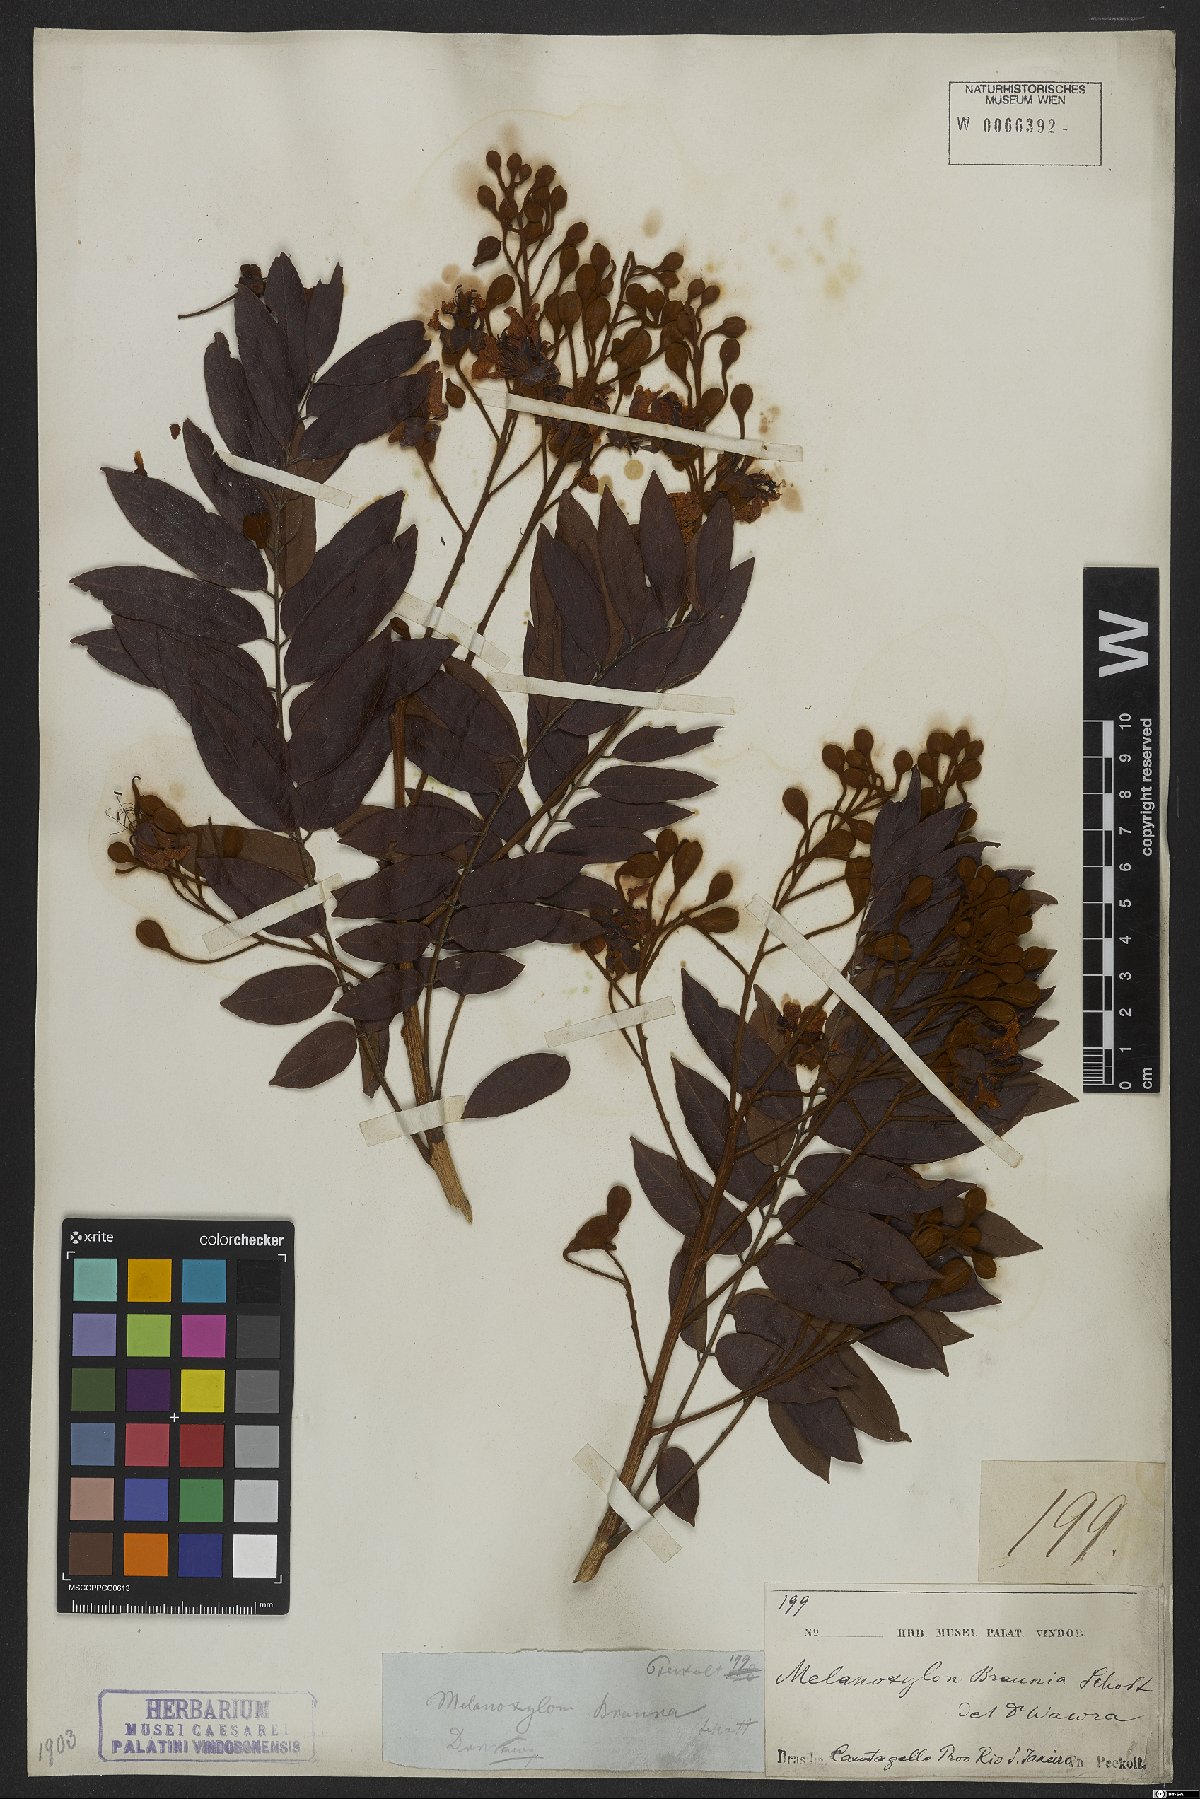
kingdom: Plantae
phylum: Tracheophyta
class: Magnoliopsida
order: Fabales
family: Fabaceae
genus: Melanoxylon
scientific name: Melanoxylon brauna
